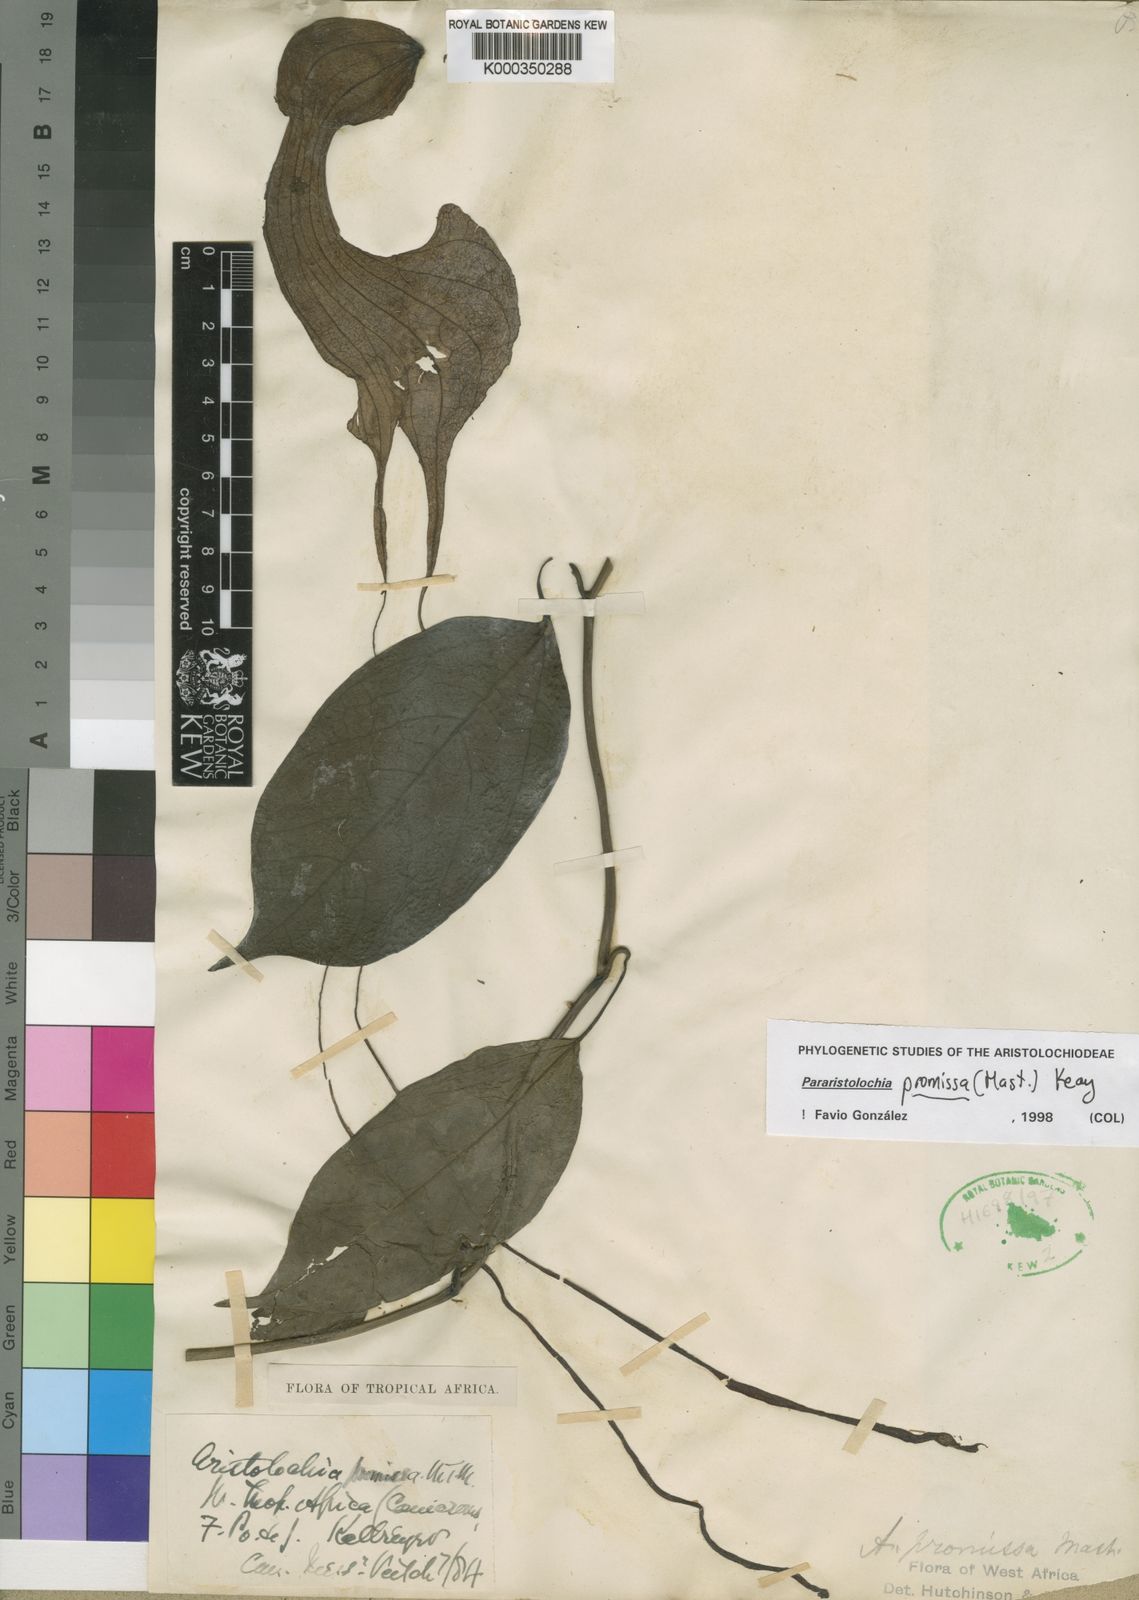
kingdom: Plantae
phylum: Tracheophyta
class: Magnoliopsida
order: Piperales
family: Aristolochiaceae
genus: Aristolochia
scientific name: Aristolochia promissa
